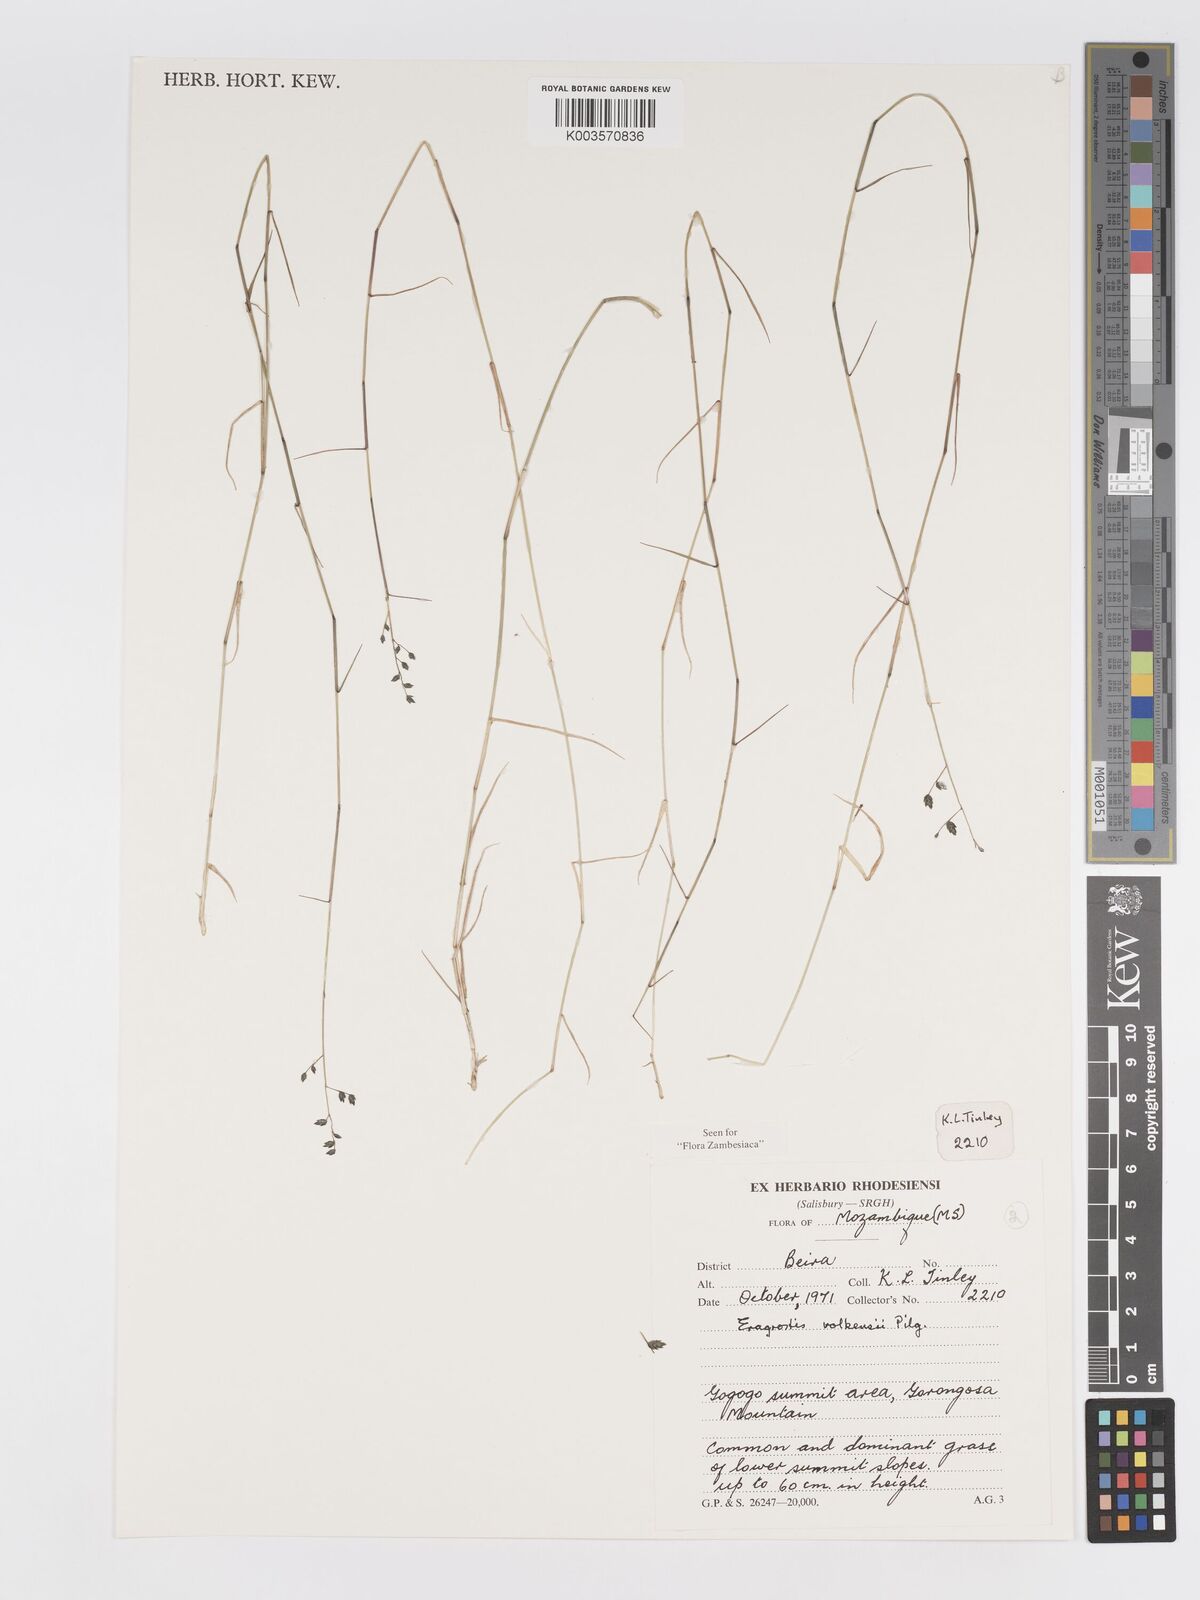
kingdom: Plantae
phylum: Tracheophyta
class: Liliopsida
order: Poales
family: Poaceae
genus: Eragrostis
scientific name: Eragrostis volkensii
